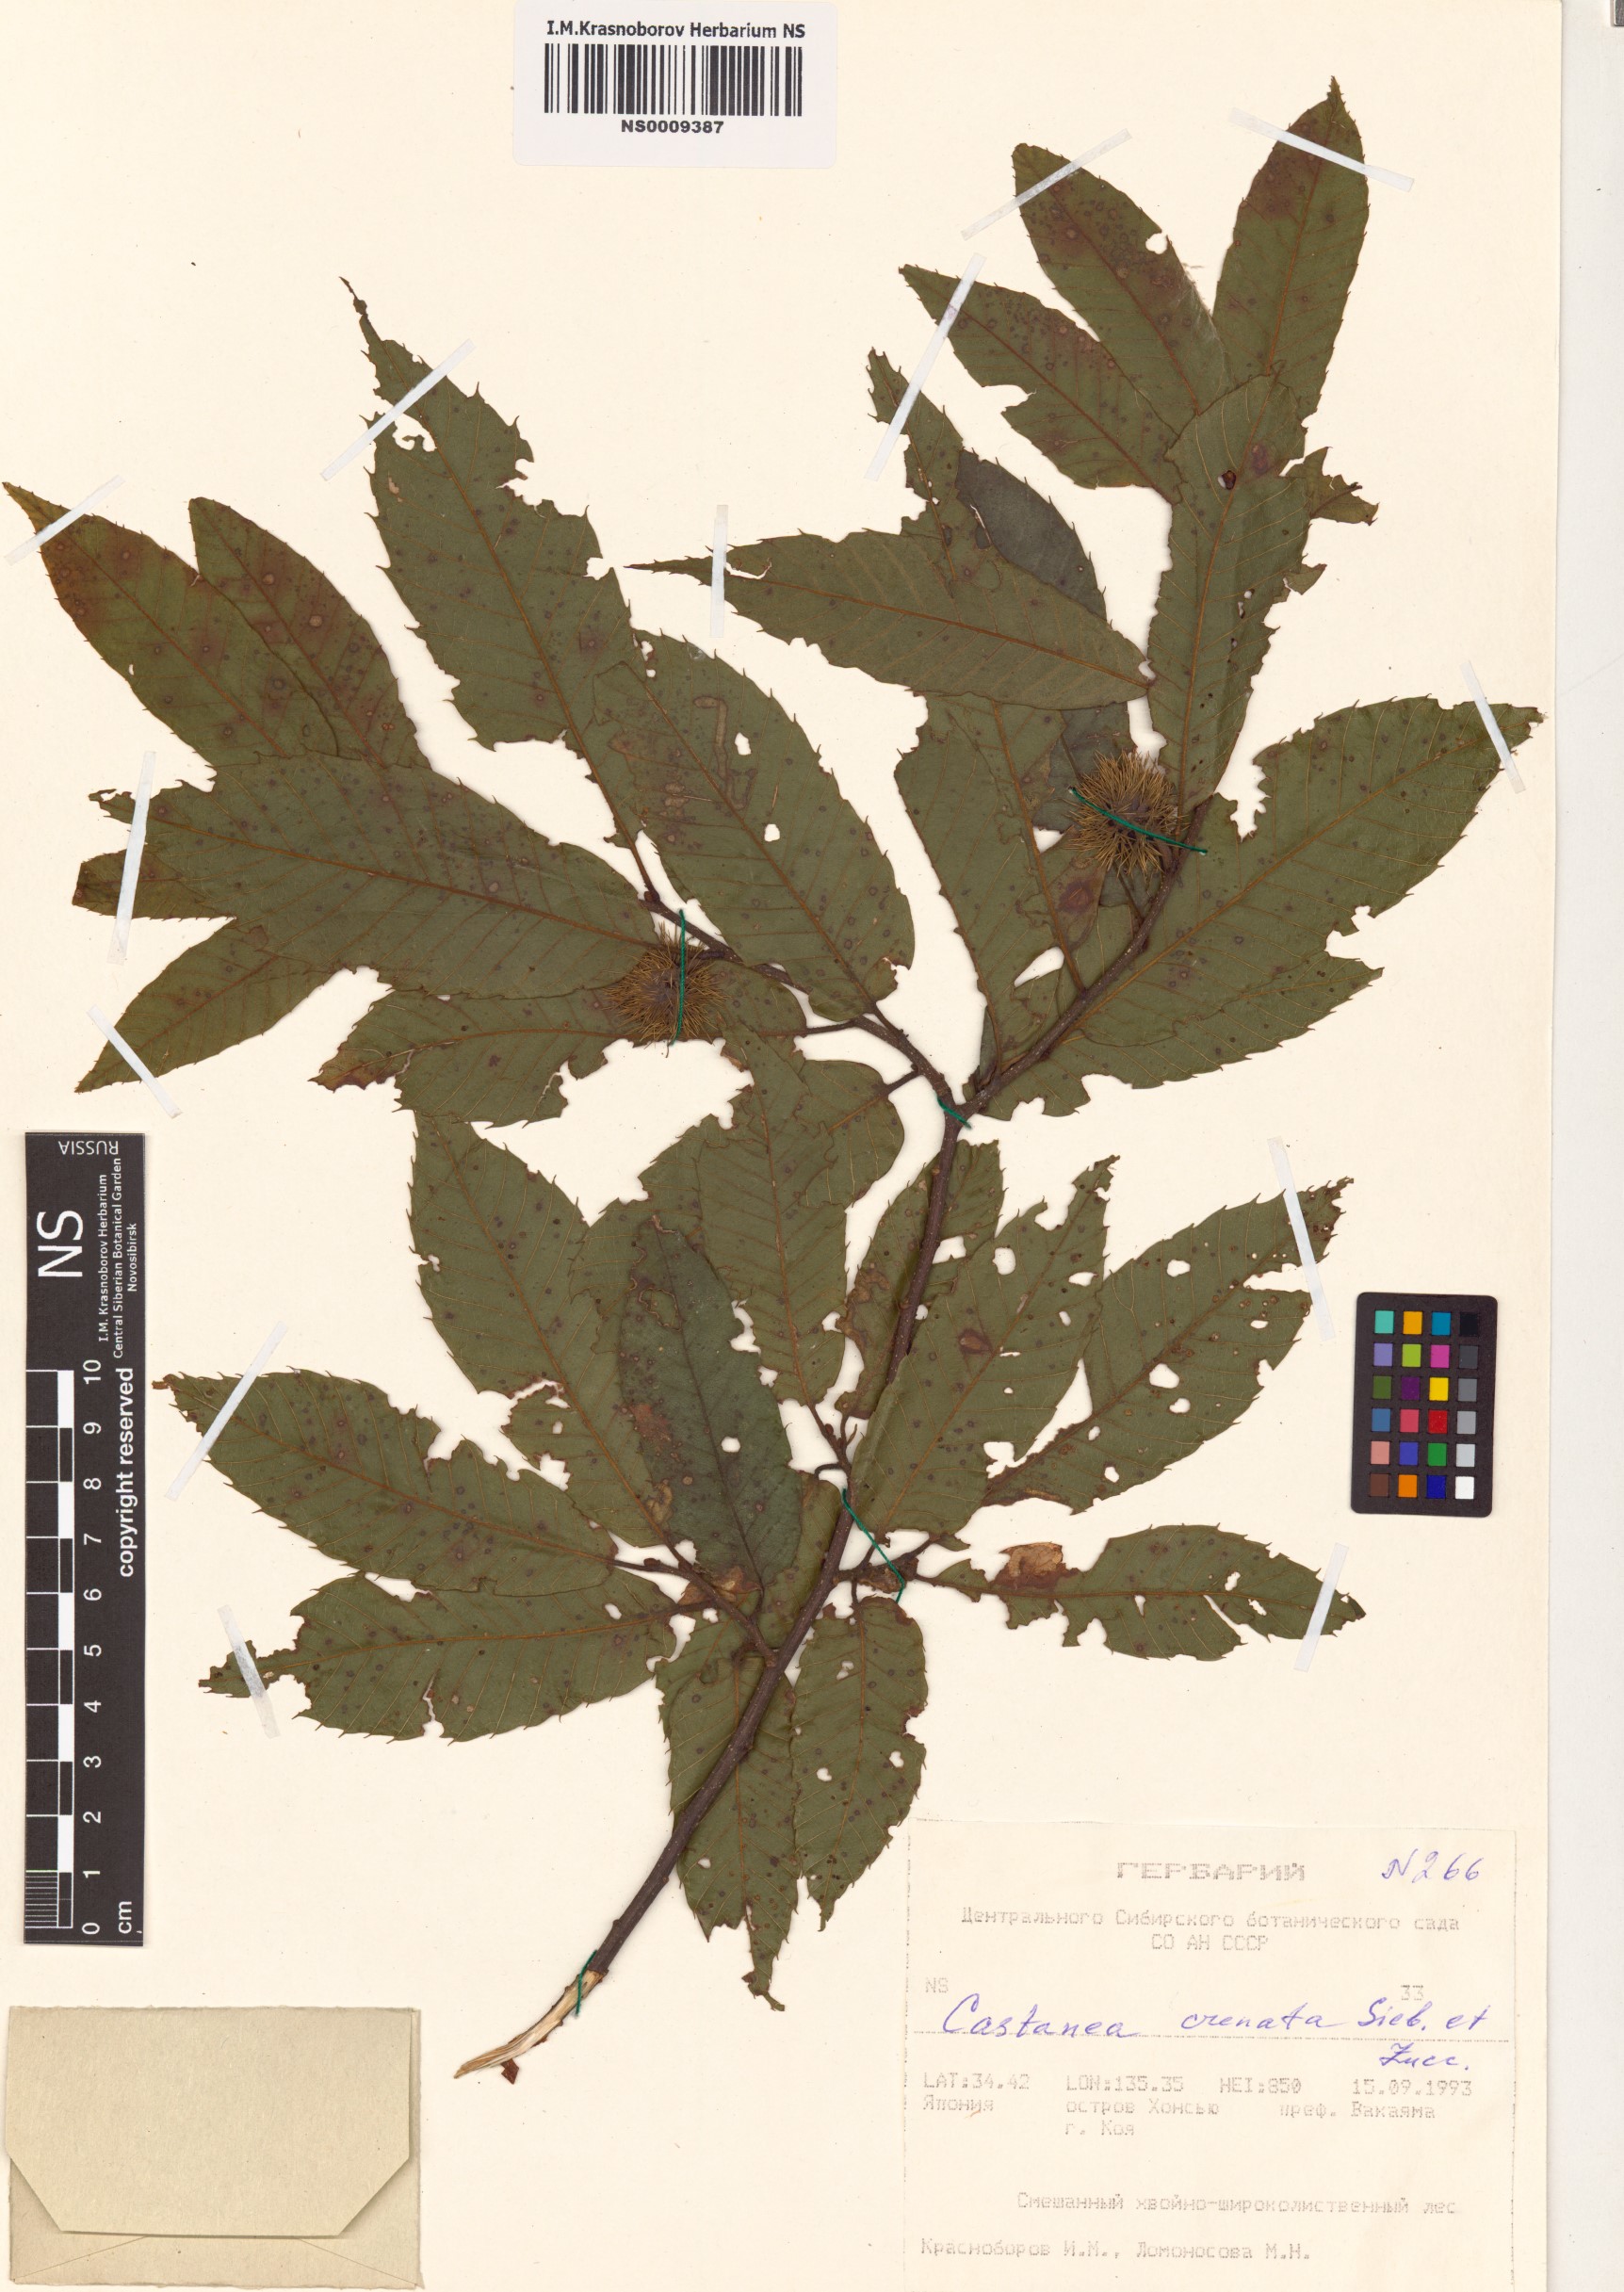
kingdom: Plantae
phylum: Tracheophyta
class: Magnoliopsida
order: Fagales
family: Fagaceae
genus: Castanea
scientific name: Castanea crenata
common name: Japanese chestnut
